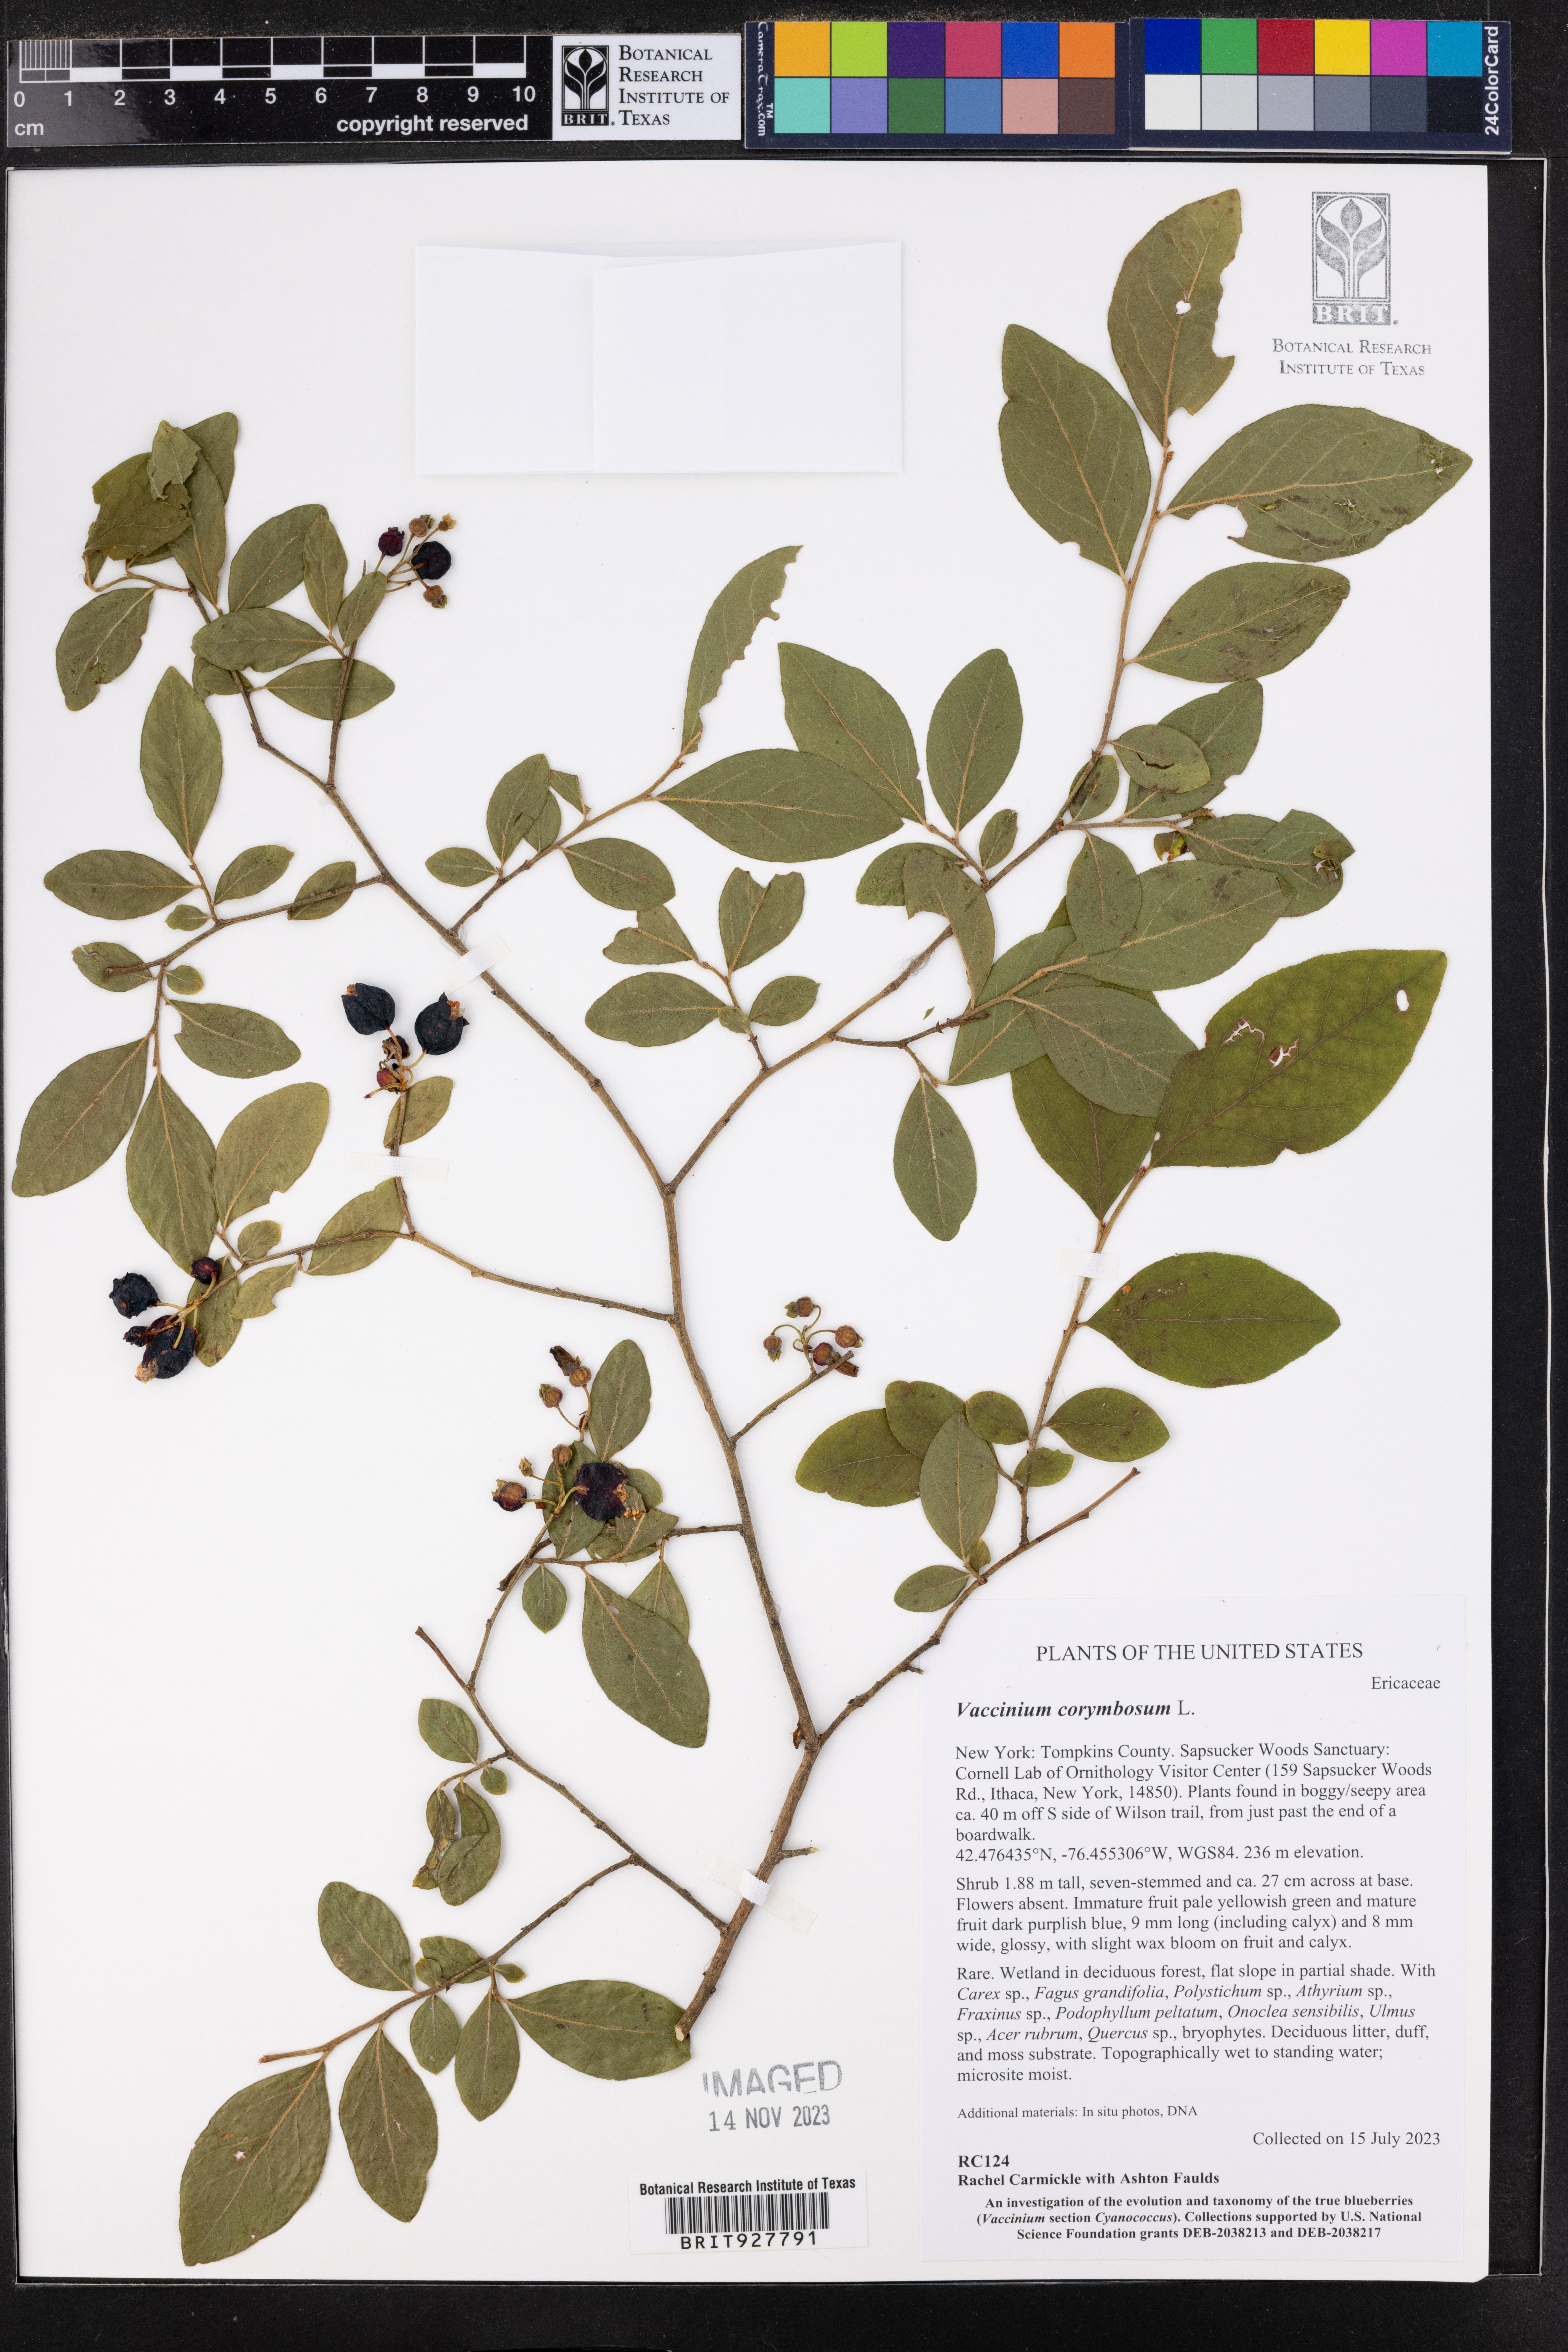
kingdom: Plantae
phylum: Tracheophyta
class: Magnoliopsida
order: Ericales
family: Ericaceae
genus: Vaccinium
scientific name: Vaccinium corymbosum
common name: Blueberry
